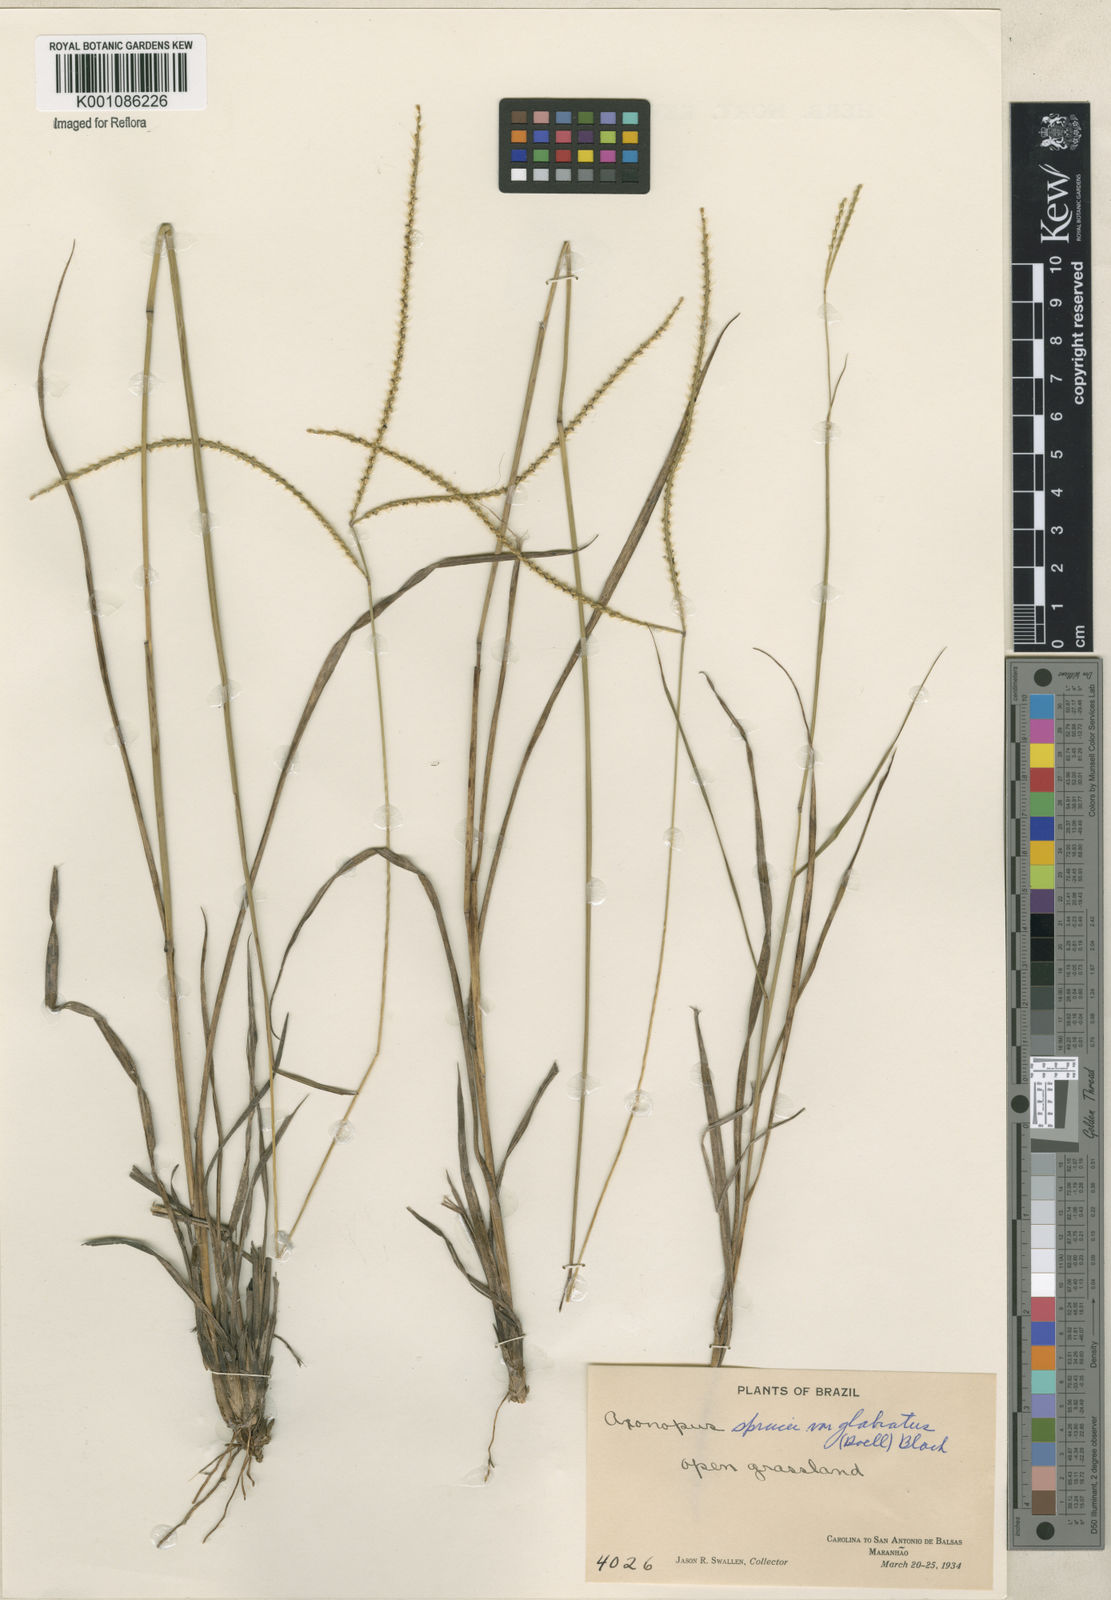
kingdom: Plantae
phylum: Tracheophyta
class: Liliopsida
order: Poales
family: Poaceae
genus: Axonopus
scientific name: Axonopus aureus
